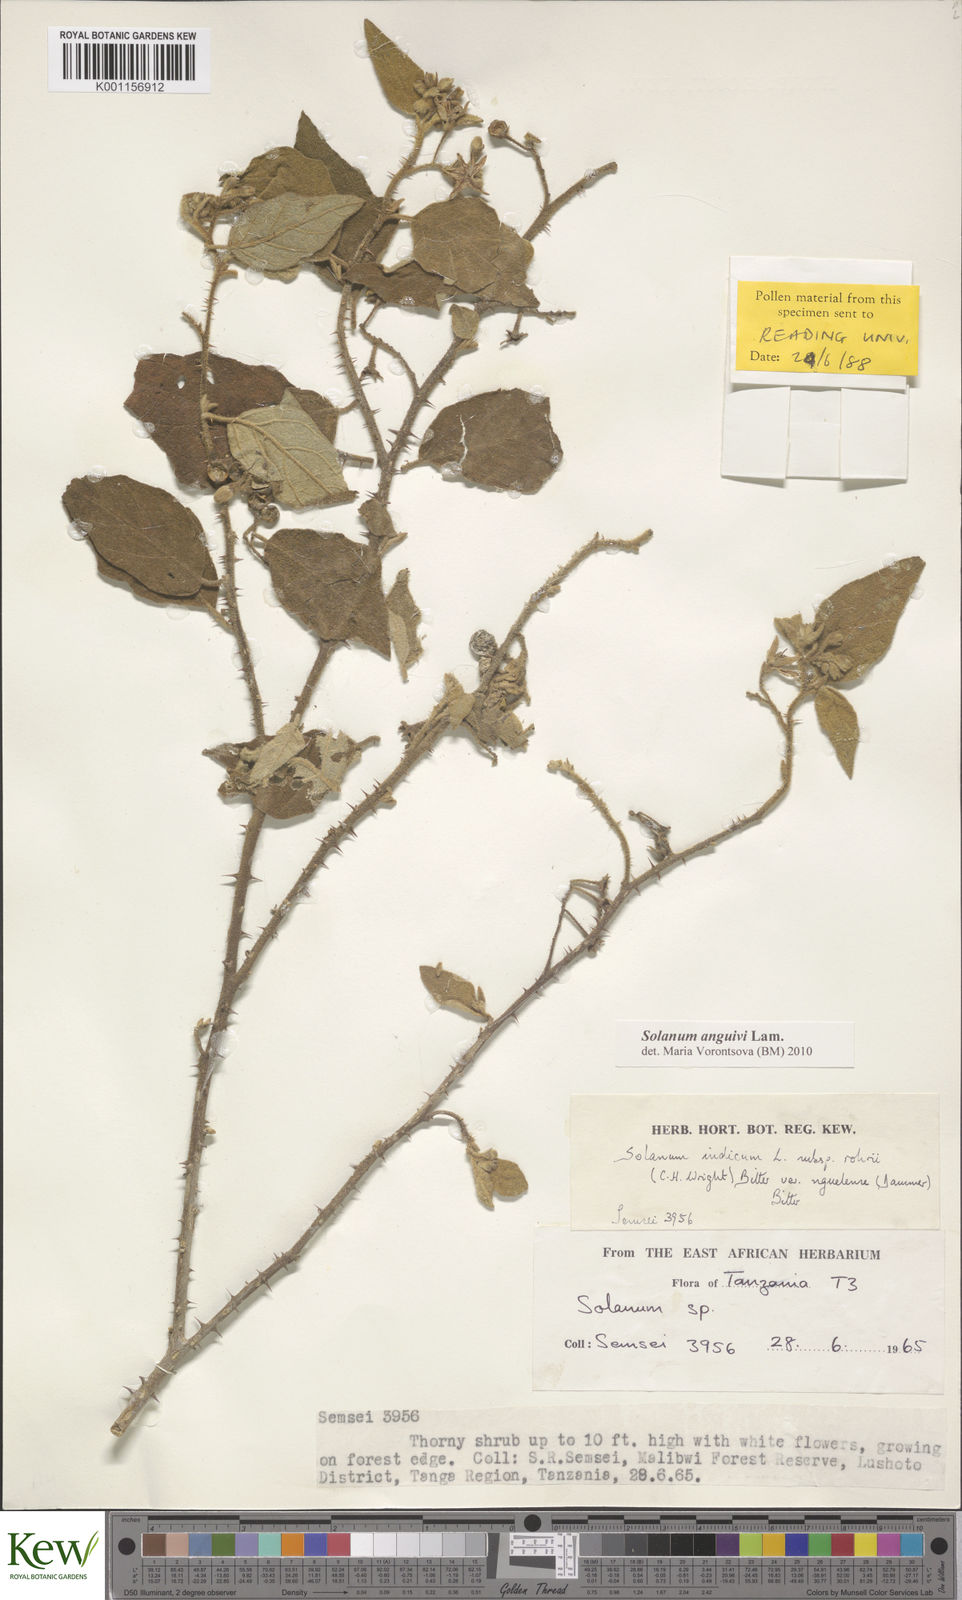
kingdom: Plantae
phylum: Tracheophyta
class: Magnoliopsida
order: Solanales
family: Solanaceae
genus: Solanum
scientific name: Solanum anguivi
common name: Forest bitterberry
